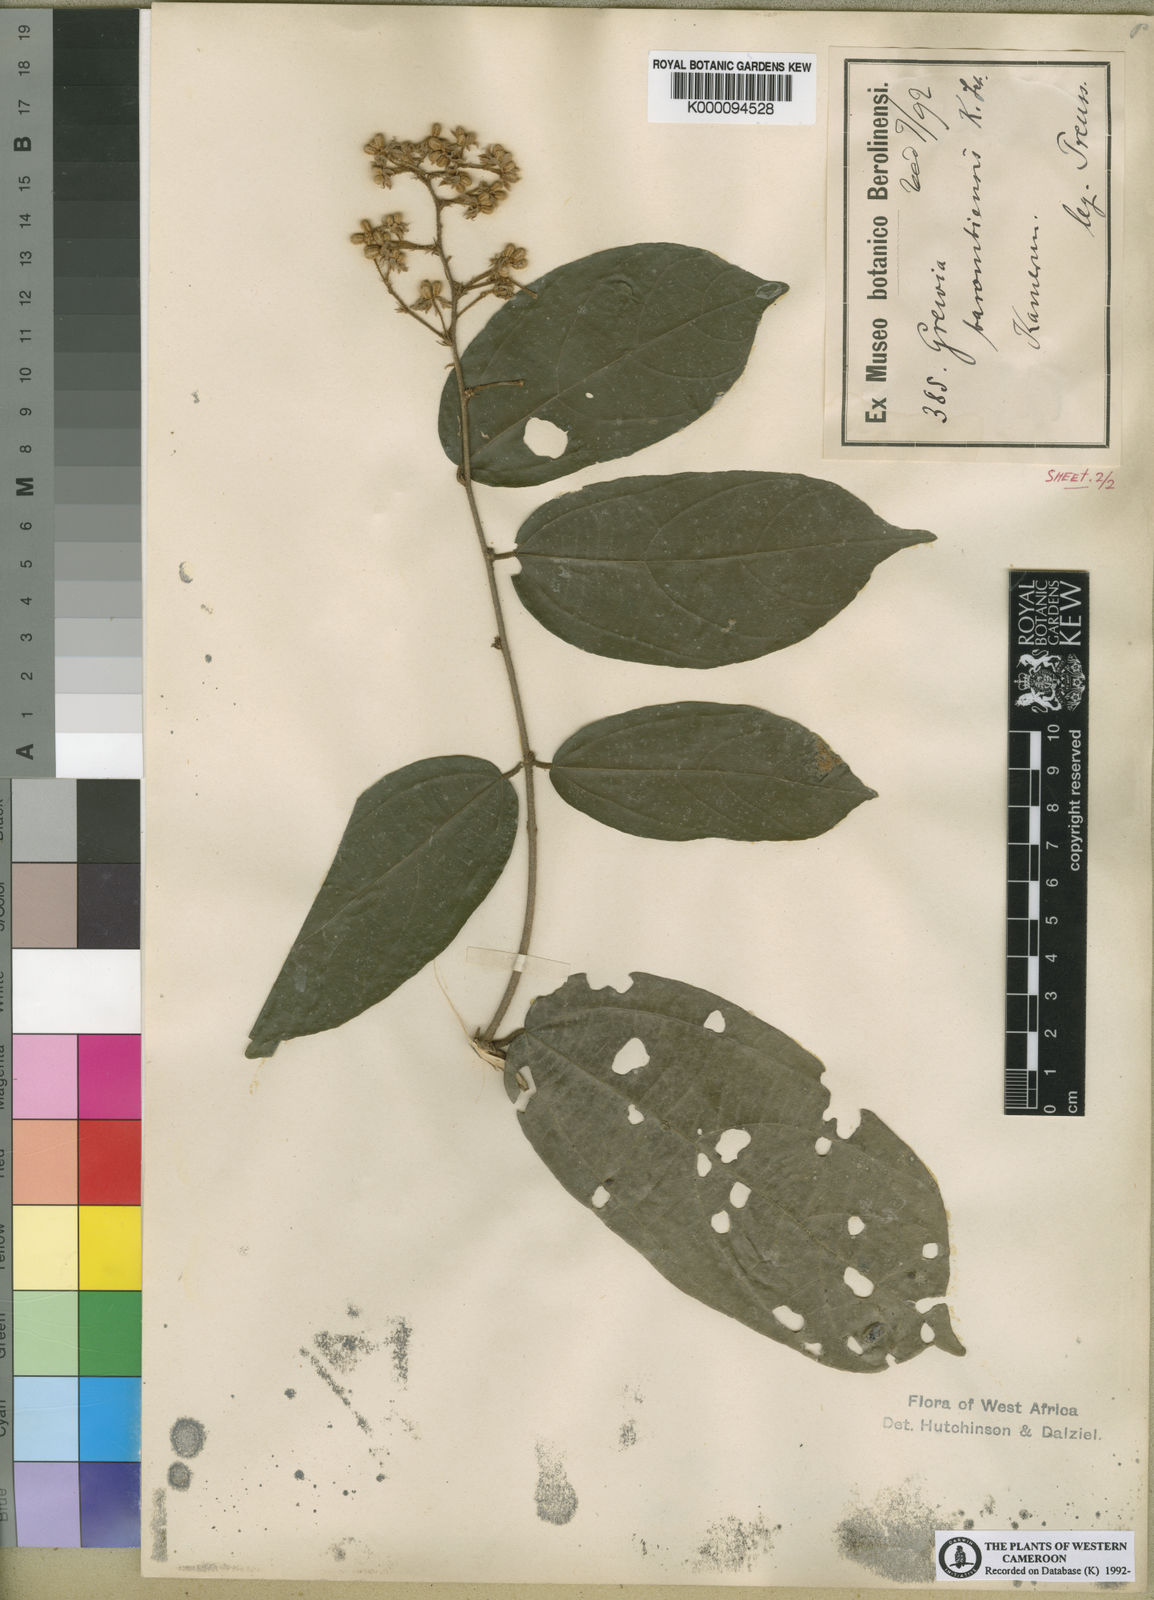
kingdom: Plantae
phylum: Tracheophyta
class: Magnoliopsida
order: Malvales
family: Malvaceae
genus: Microcos
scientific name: Microcos barombiensis
